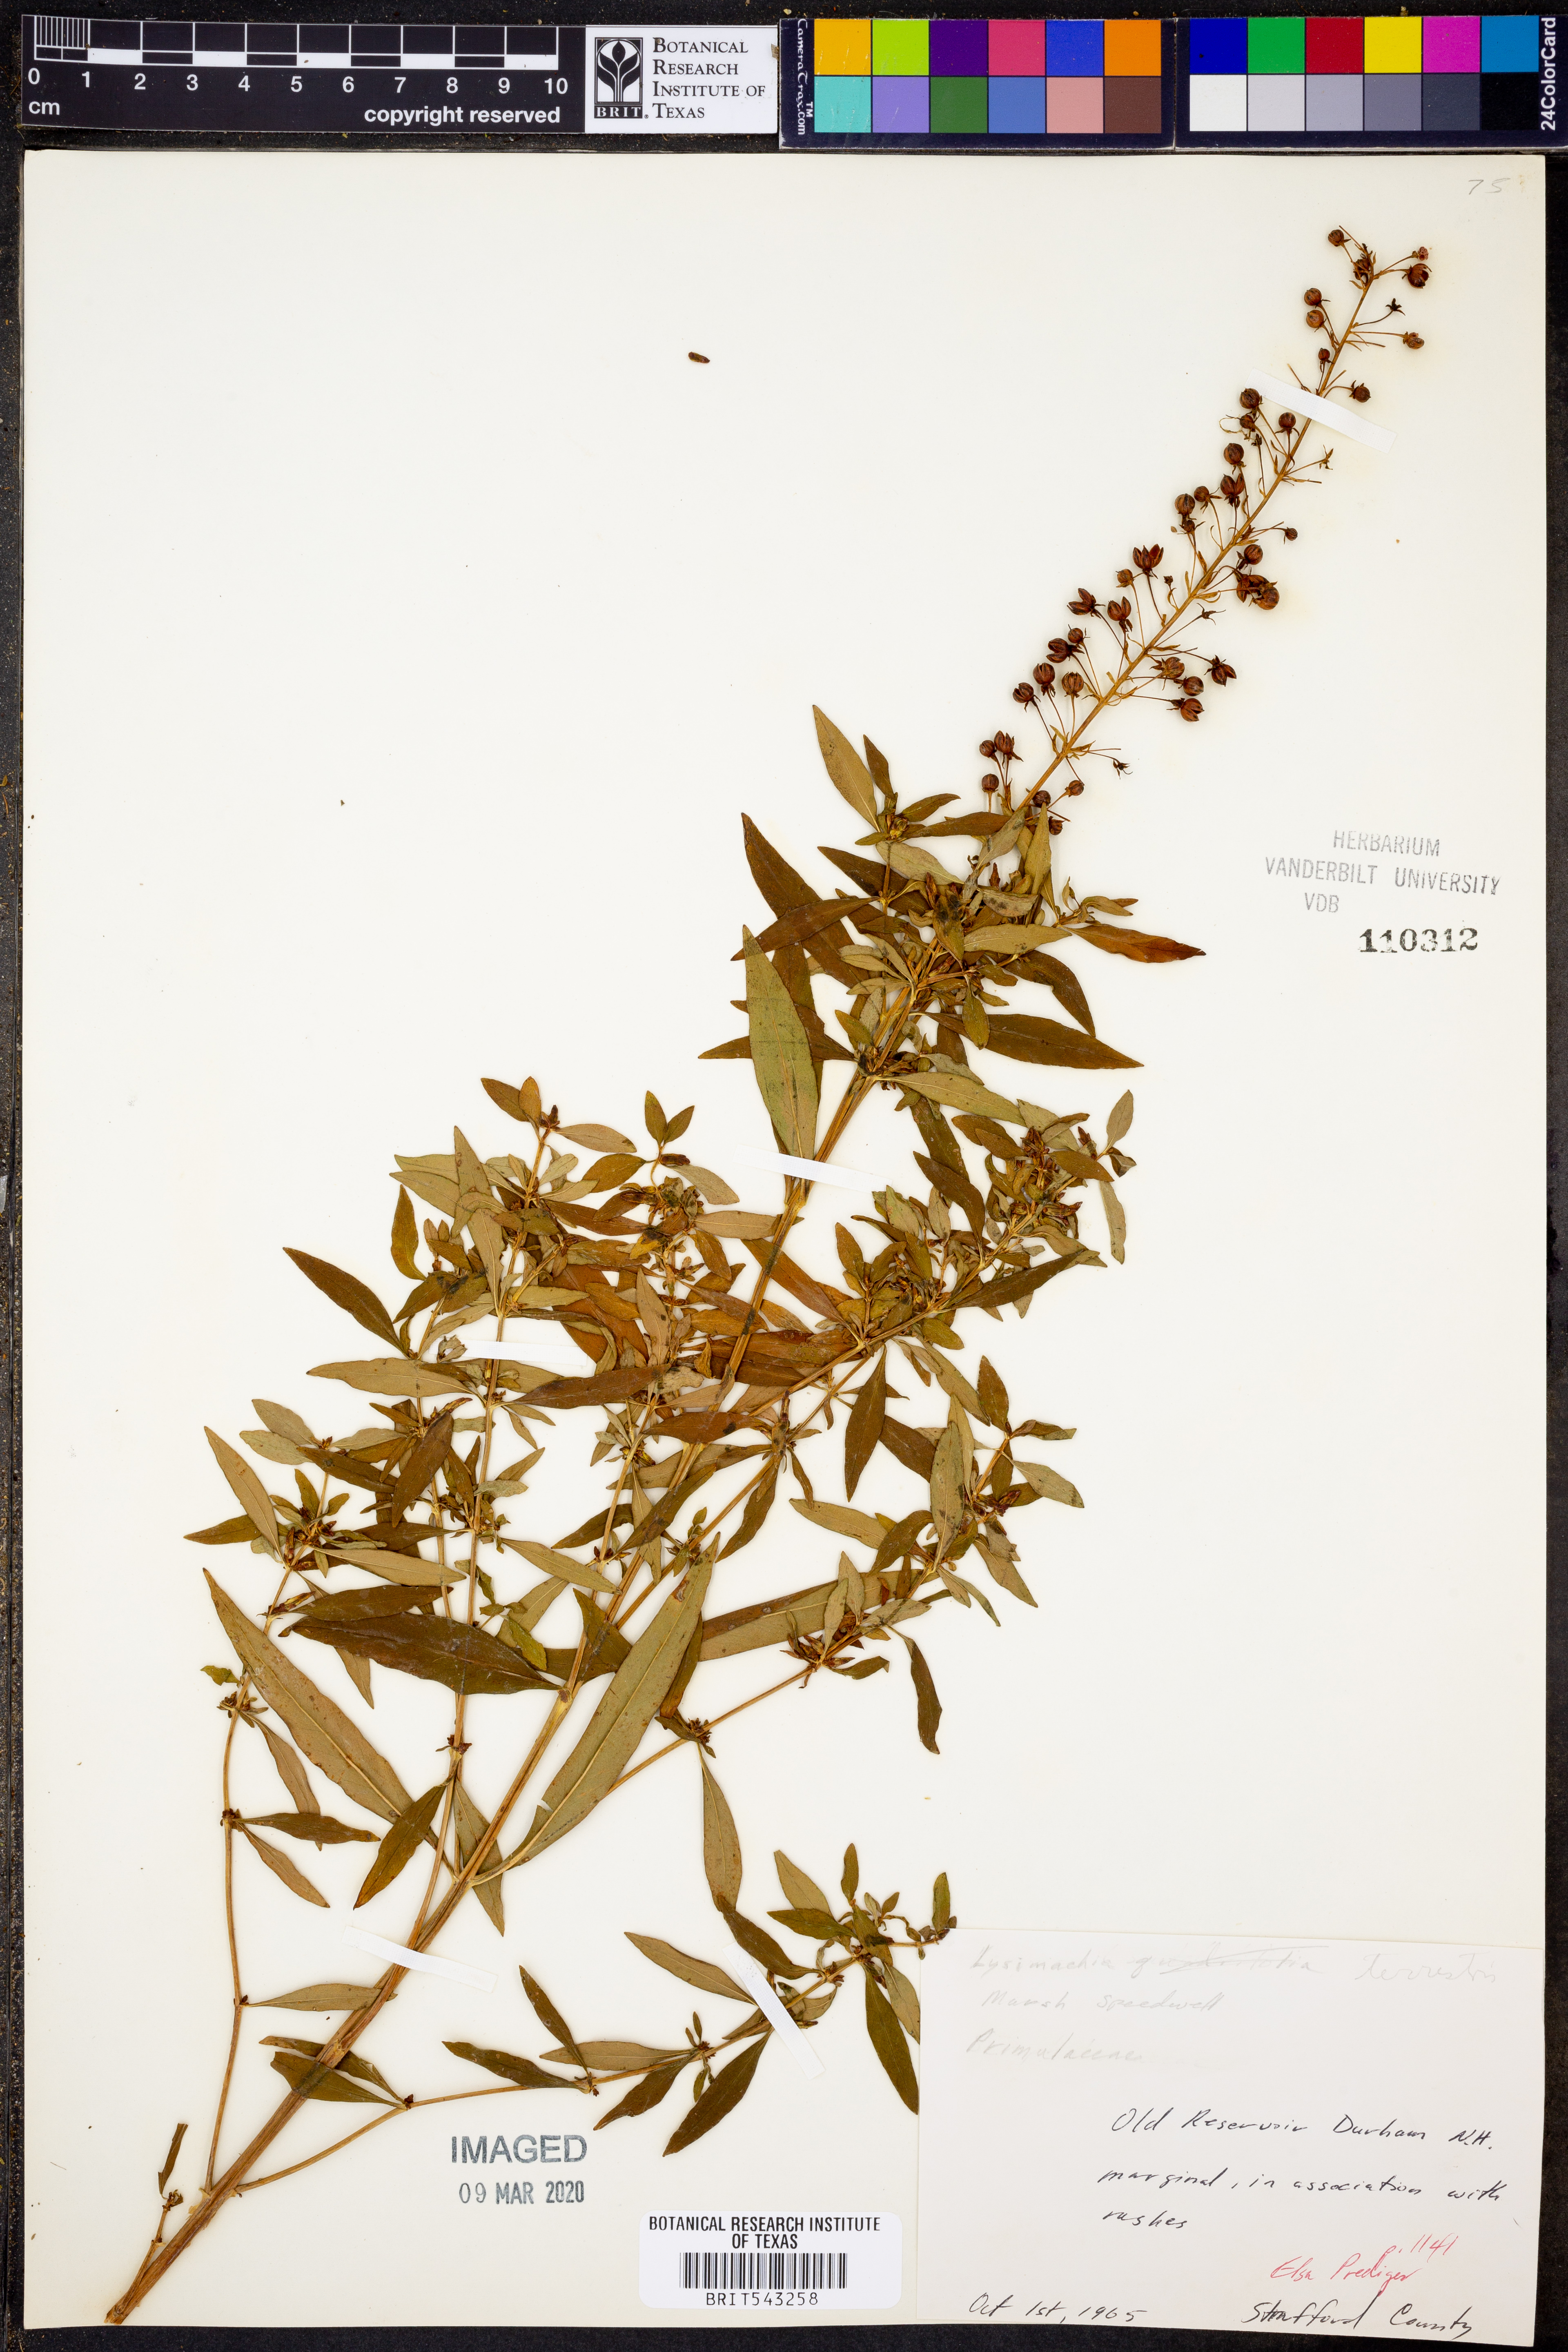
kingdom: Plantae
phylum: Tracheophyta
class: Magnoliopsida
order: Ericales
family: Primulaceae
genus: Lysimachia
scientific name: Lysimachia quadrifolia
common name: Whorled loosestrife
